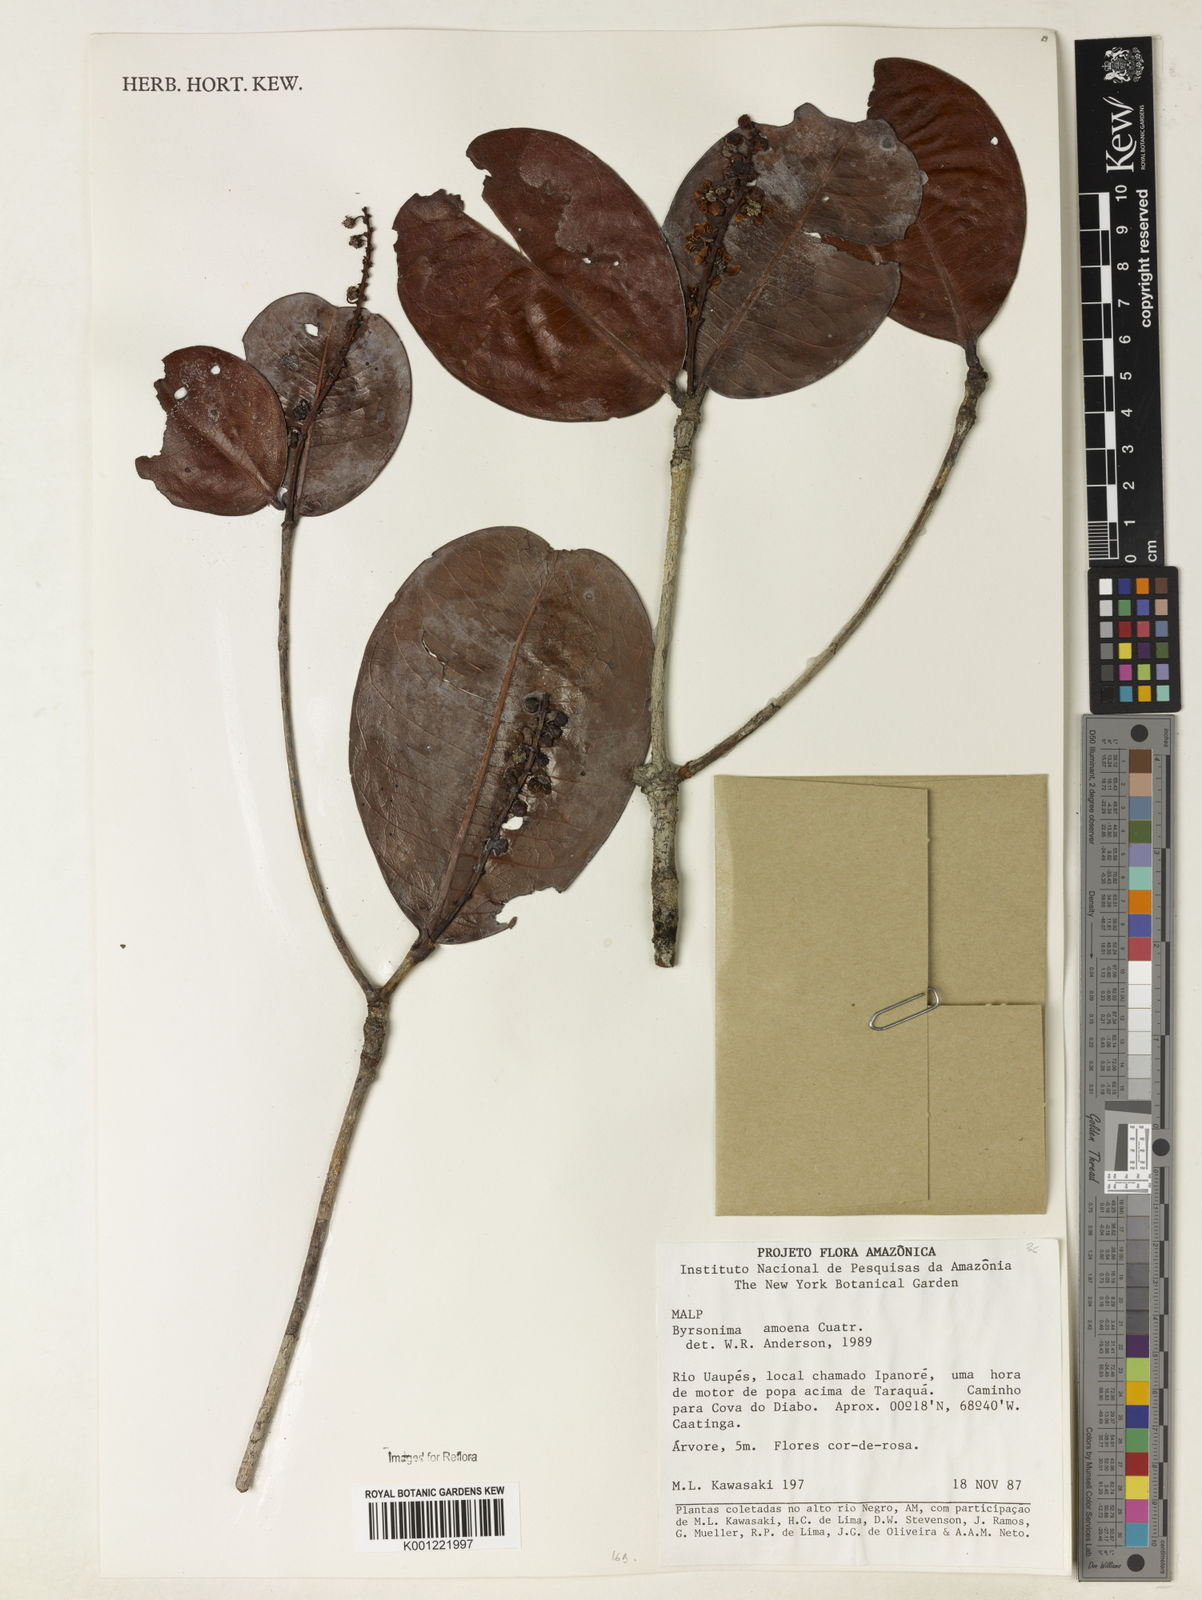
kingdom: Plantae
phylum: Tracheophyta
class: Magnoliopsida
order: Malpighiales
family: Malpighiaceae
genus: Byrsonima
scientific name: Byrsonima amoena
